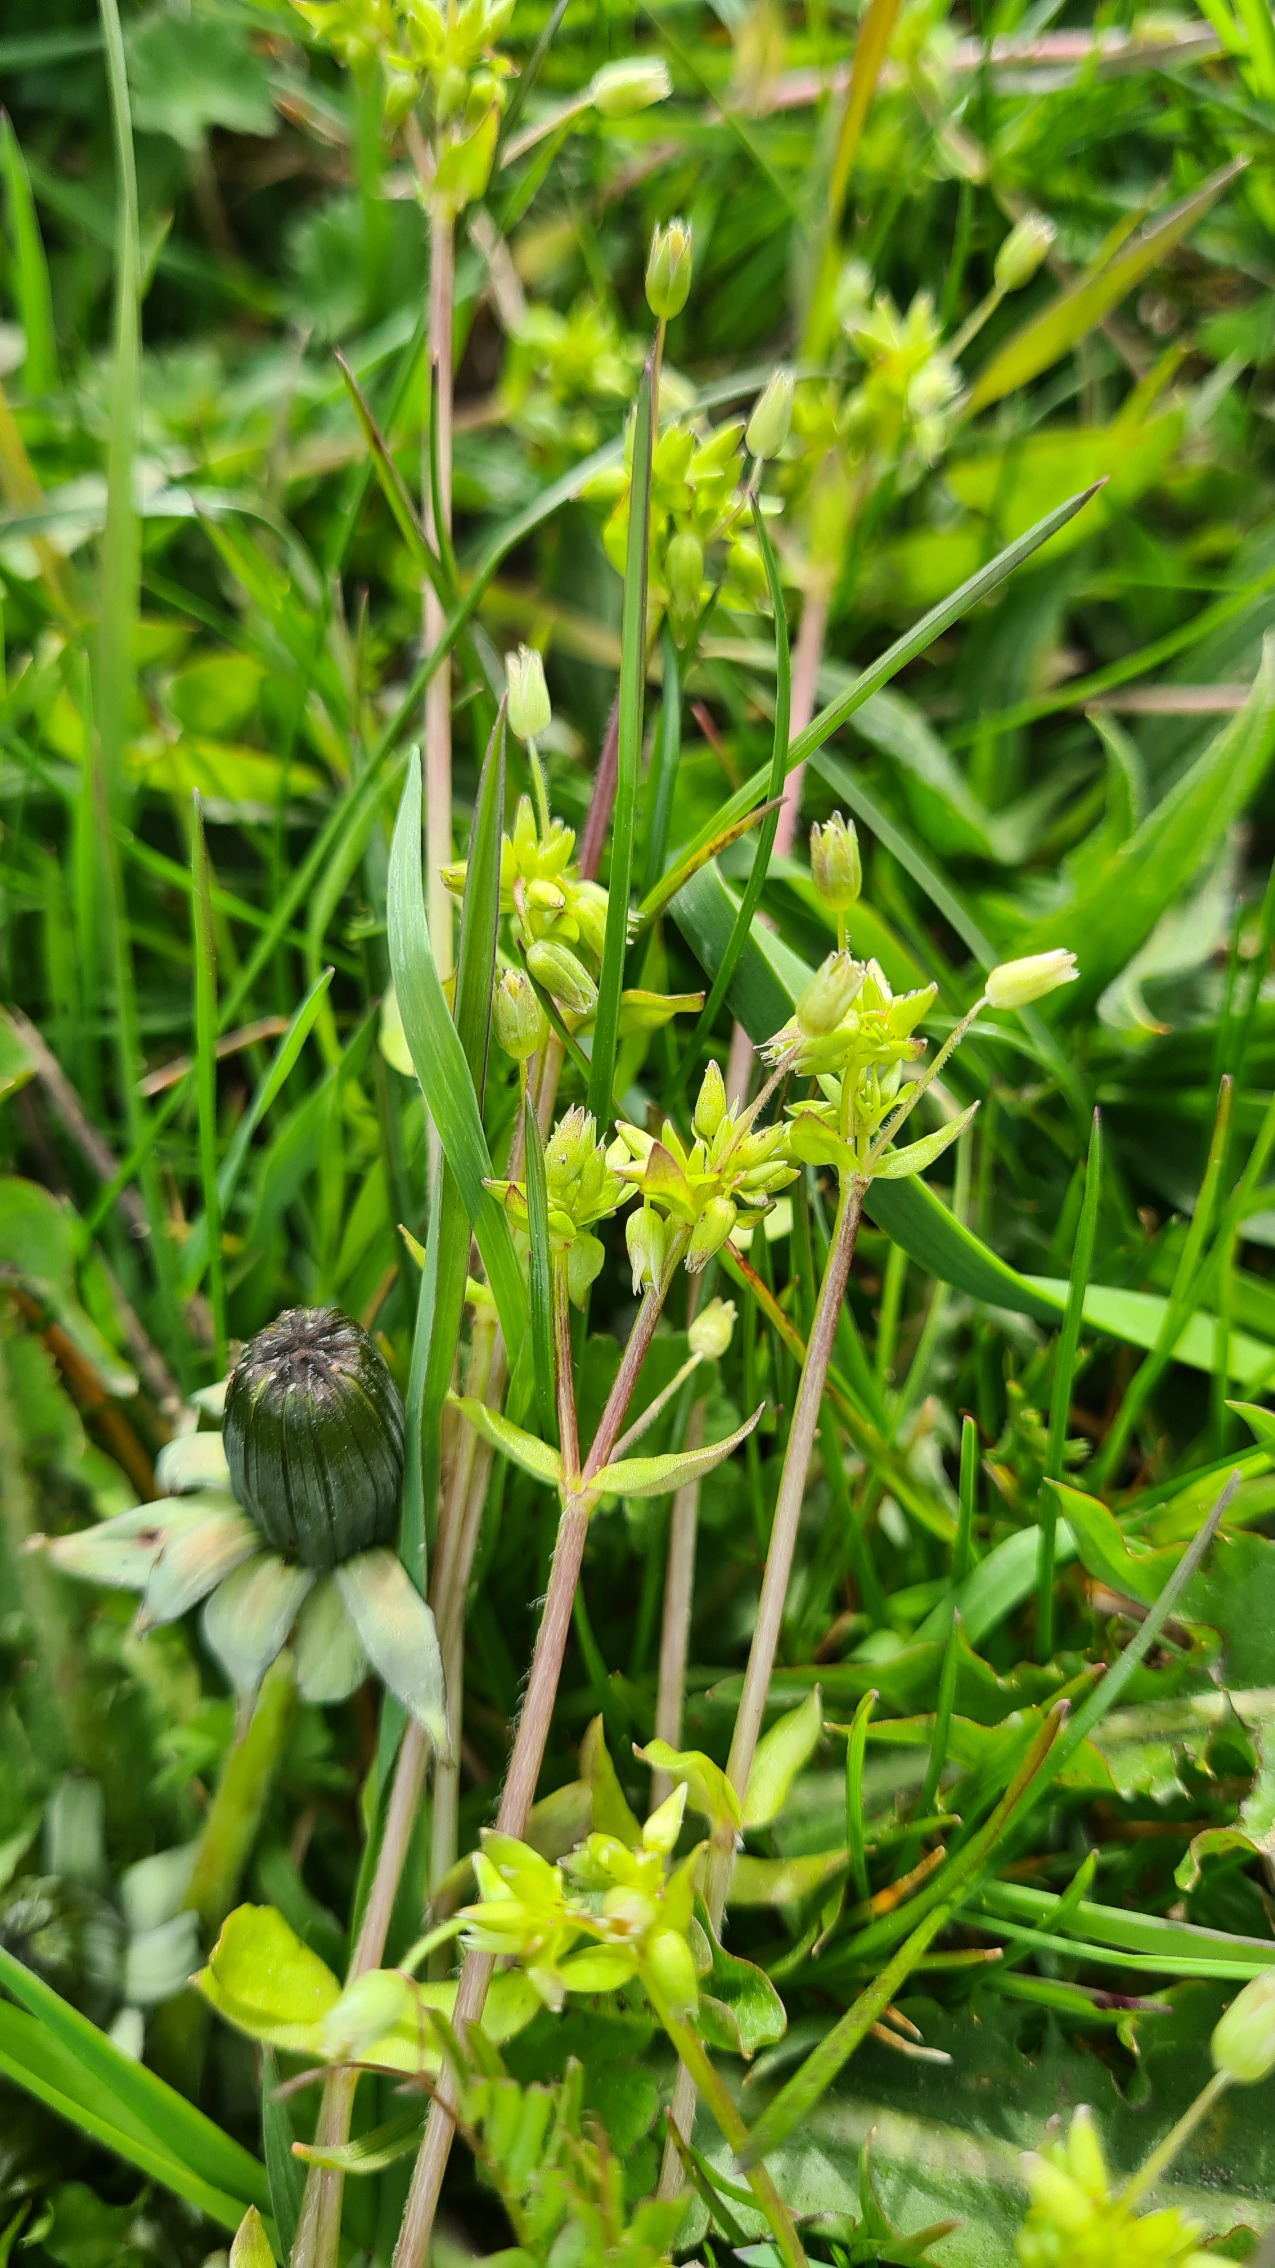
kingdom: Plantae
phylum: Tracheophyta
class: Magnoliopsida
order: Caryophyllales
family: Caryophyllaceae
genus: Stellaria
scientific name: Stellaria apetala
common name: Bleg fuglegræs
